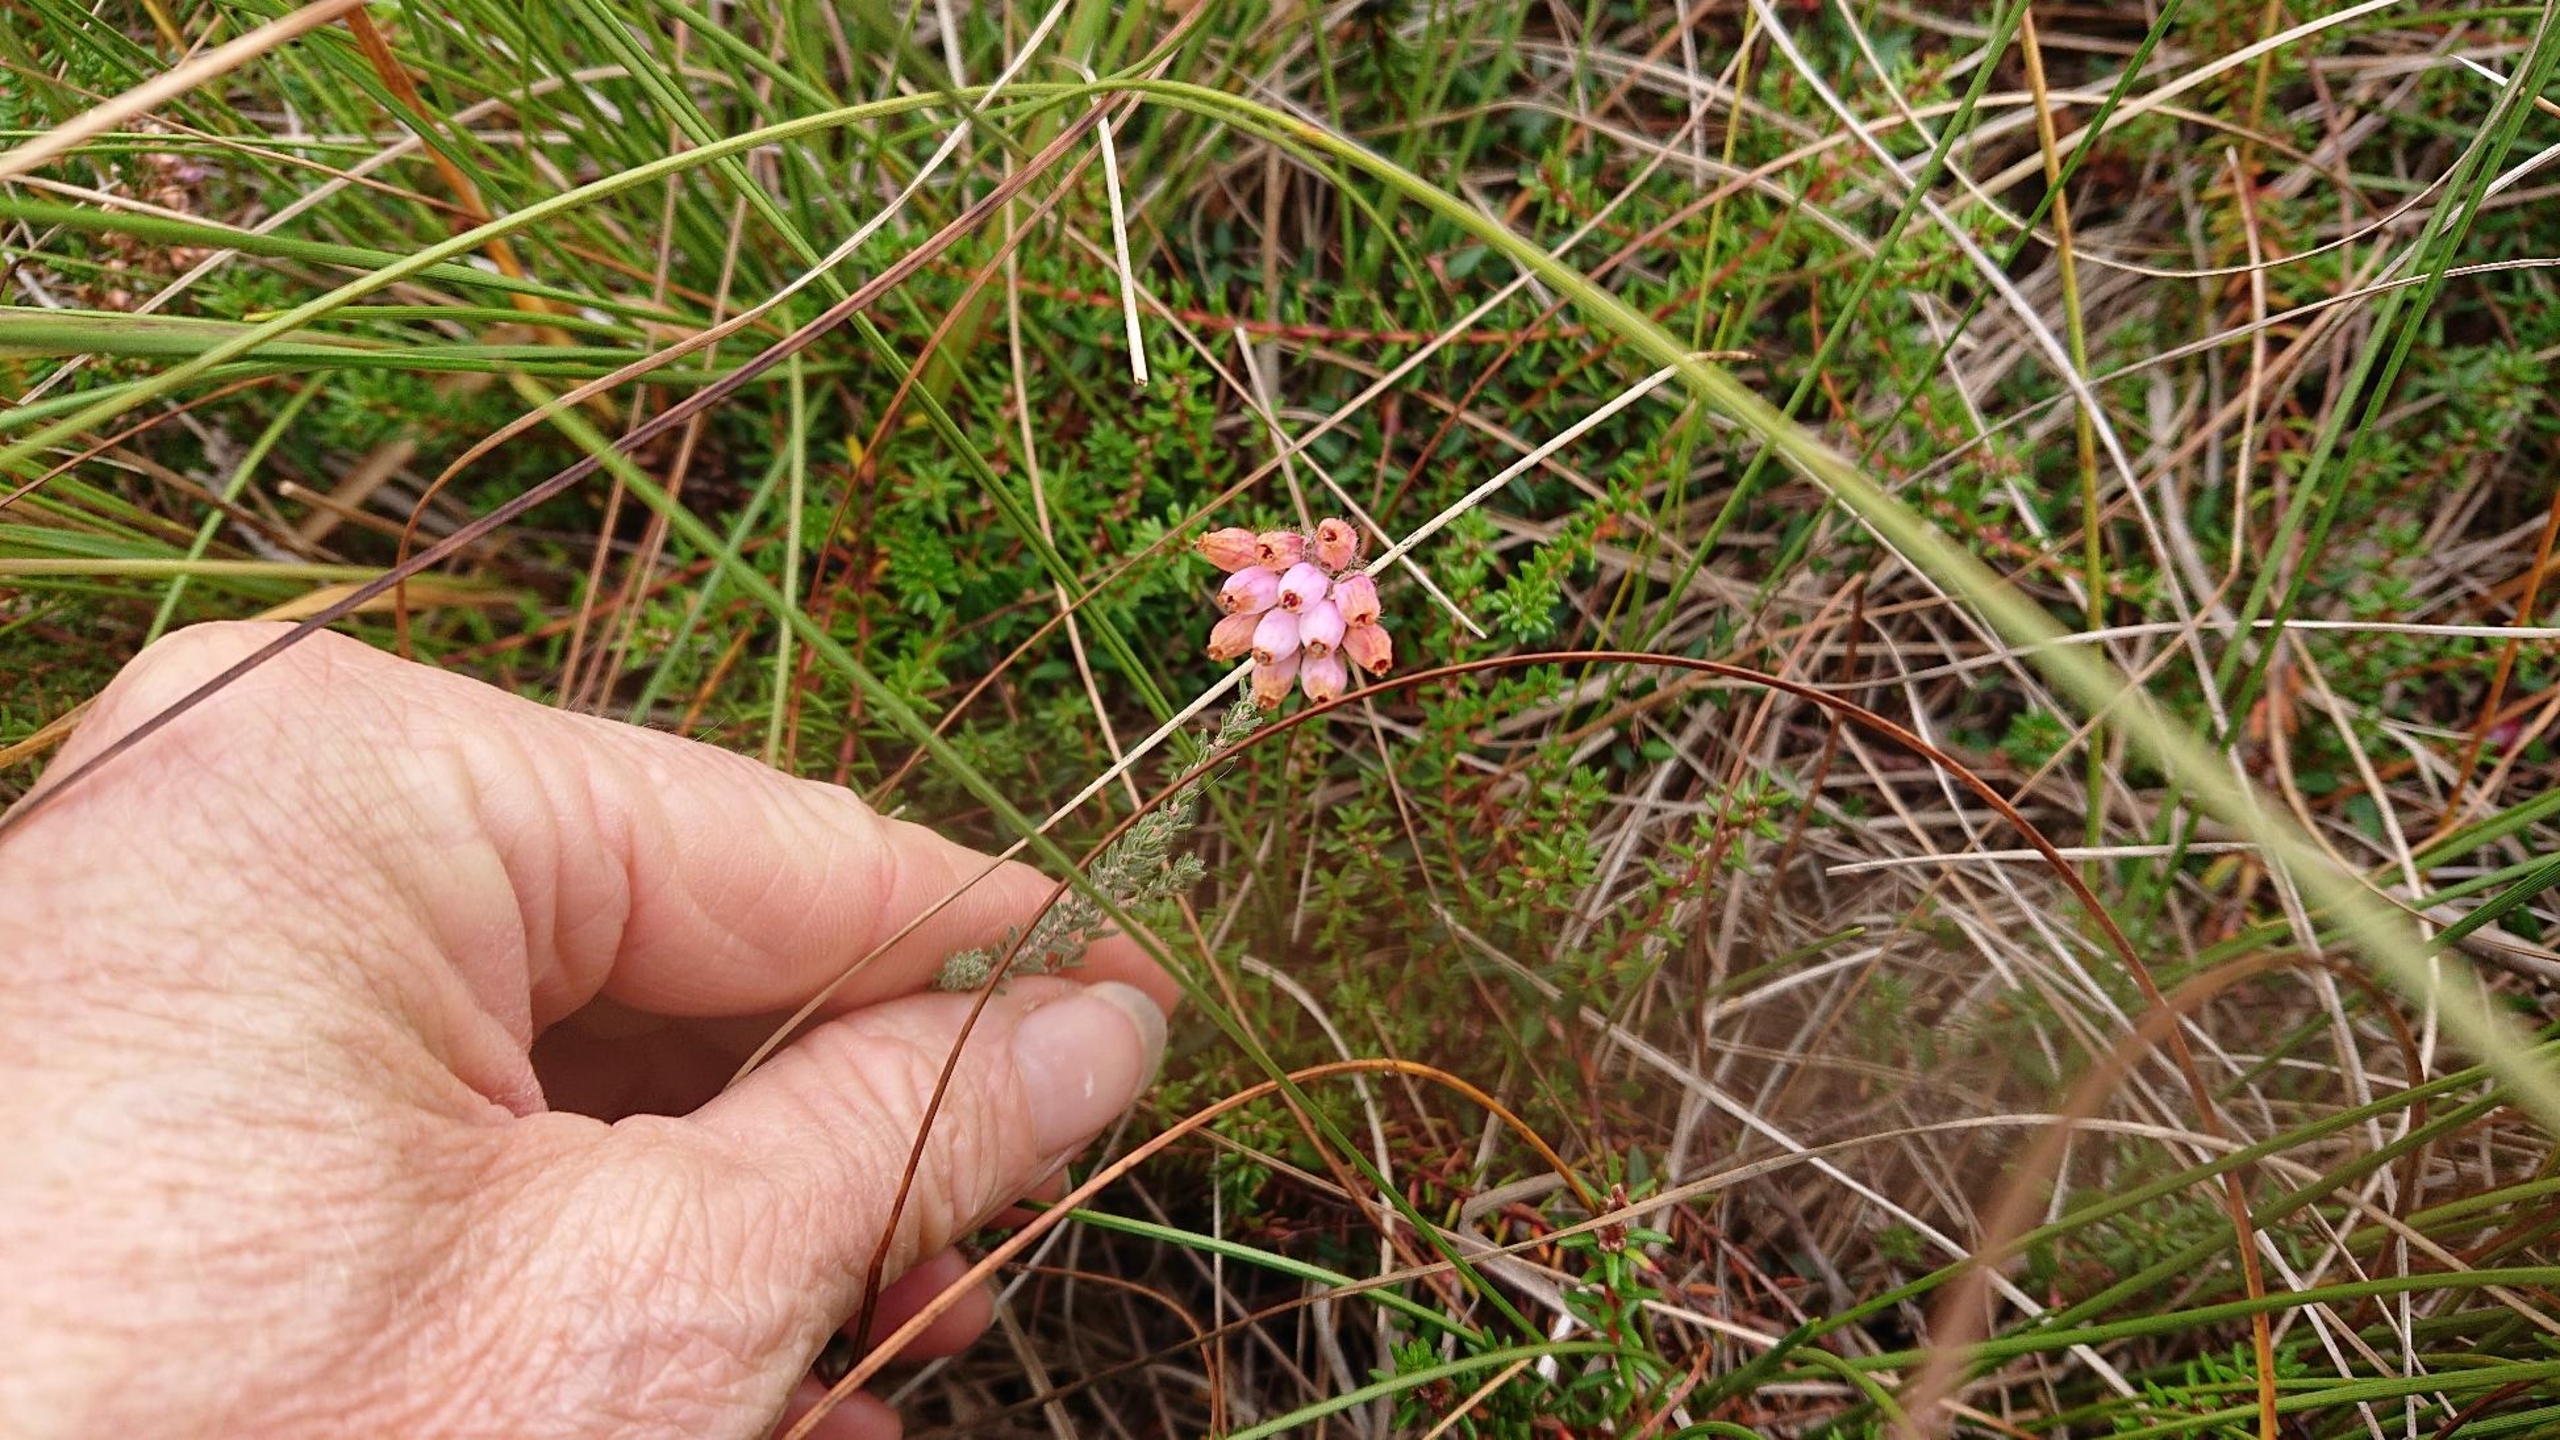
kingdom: Plantae
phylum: Tracheophyta
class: Magnoliopsida
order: Ericales
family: Ericaceae
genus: Erica
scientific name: Erica tetralix
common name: Klokkelyng
